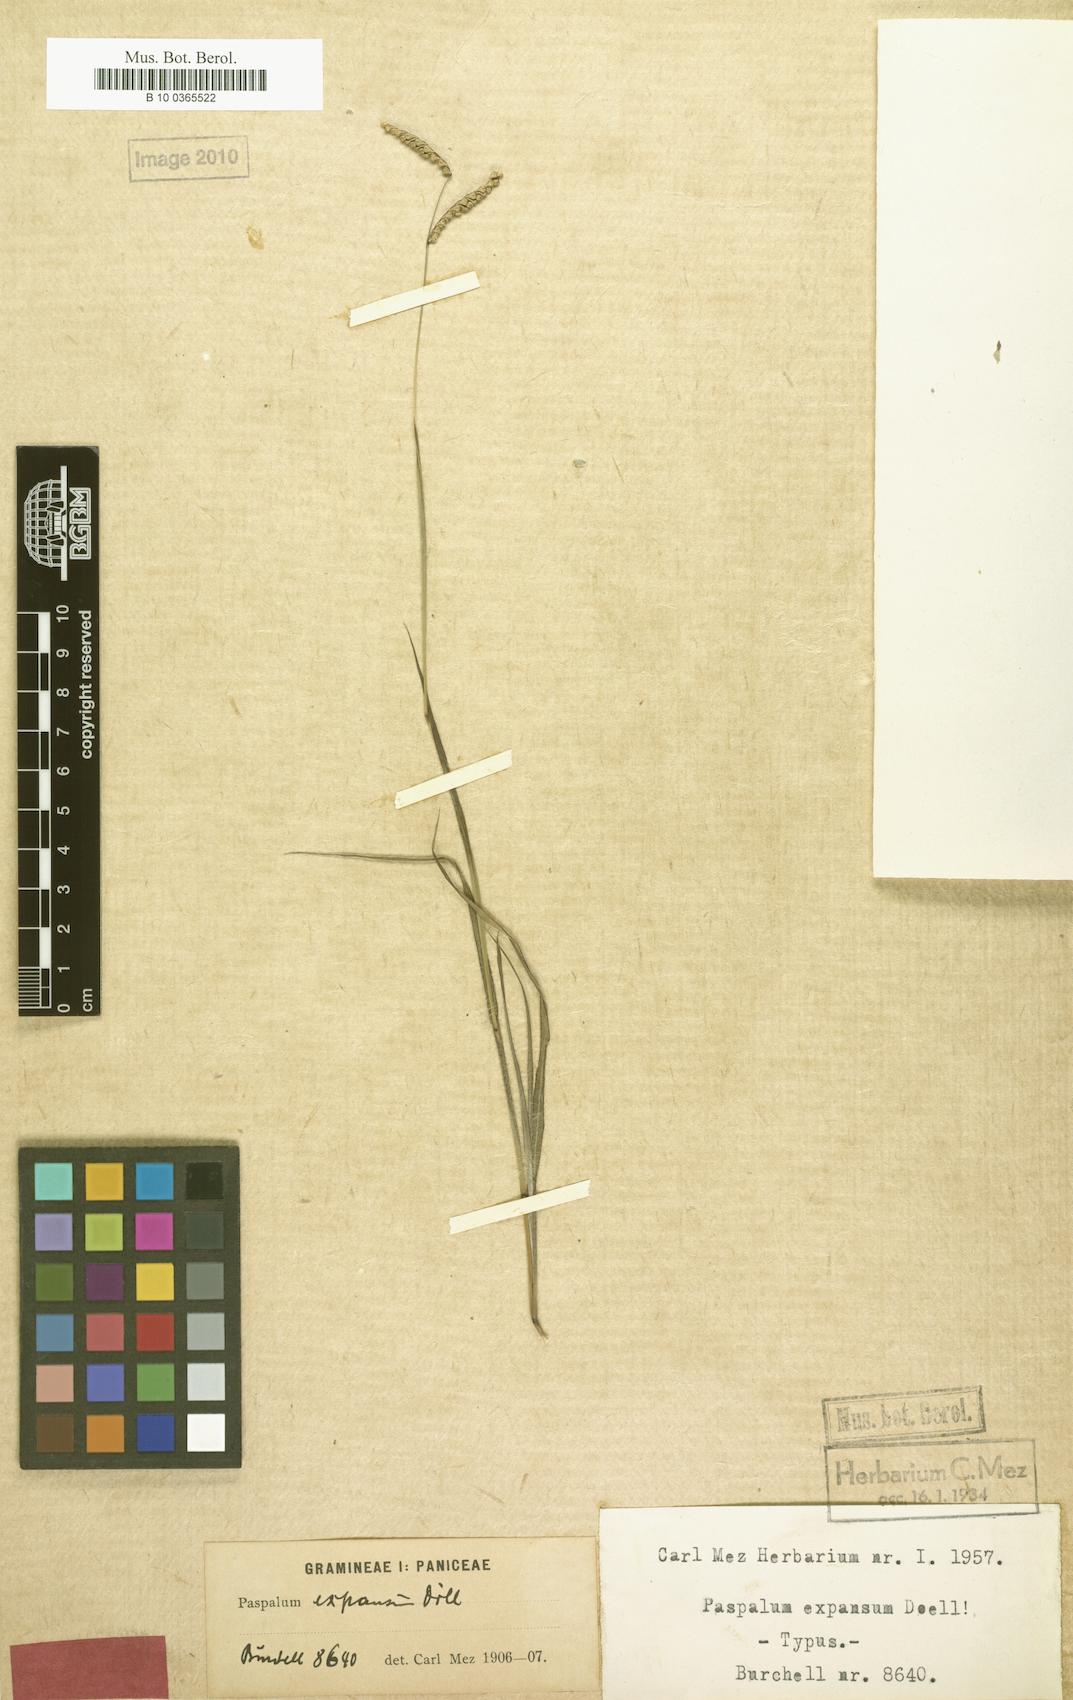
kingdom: Plantae
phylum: Tracheophyta
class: Liliopsida
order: Poales
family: Poaceae
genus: Paspalum
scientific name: Paspalum expansum
